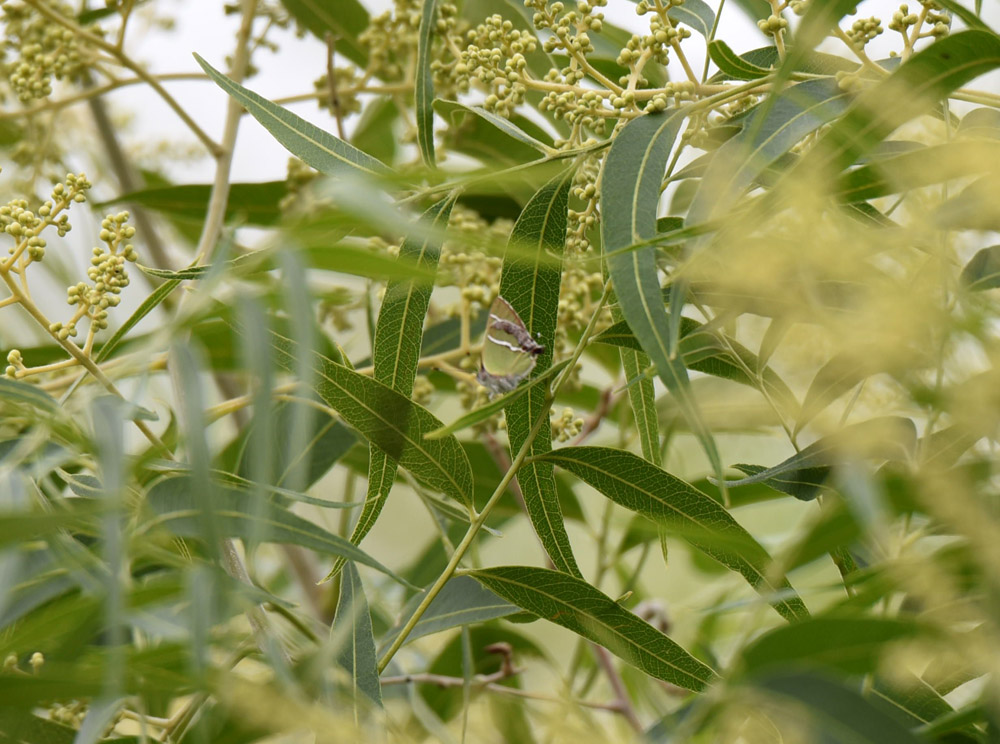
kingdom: Animalia
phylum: Arthropoda
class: Insecta
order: Lepidoptera
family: Lycaenidae
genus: Chlorostrymon
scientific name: Chlorostrymon simaethis
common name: Silver-banded hairstreak
